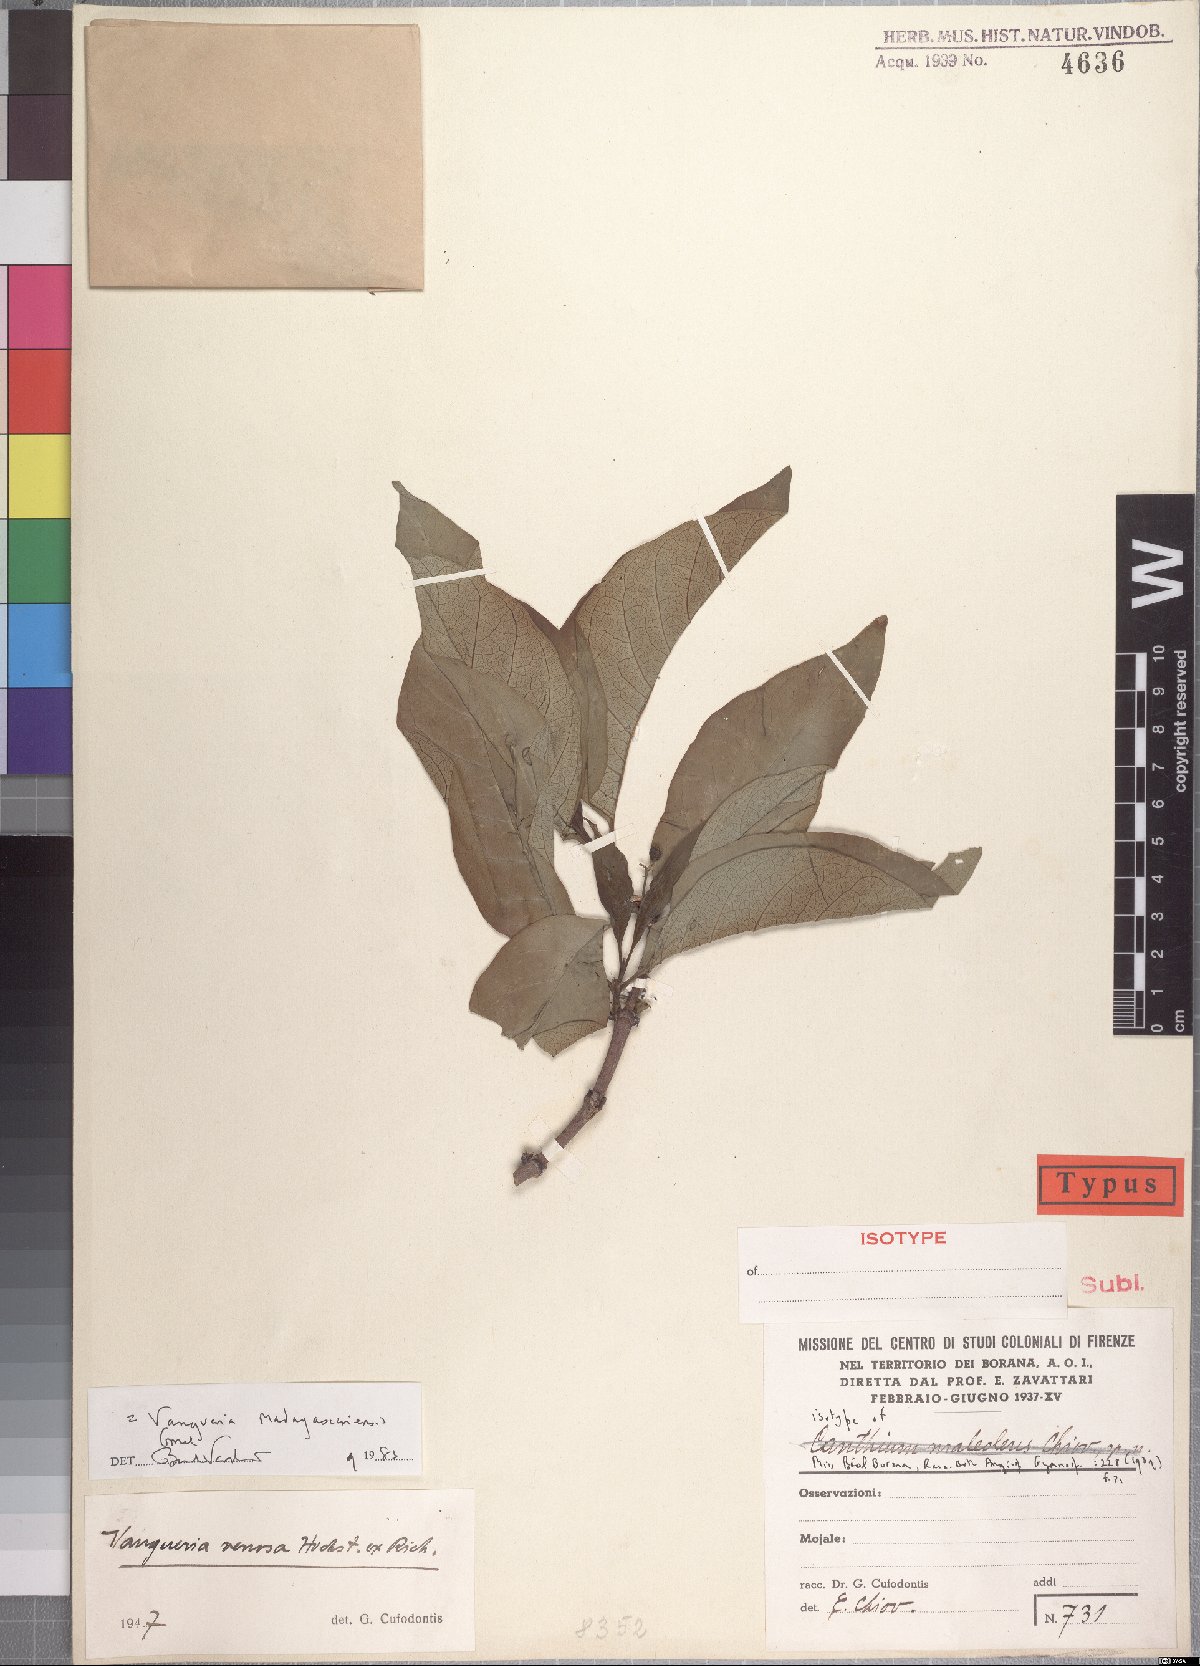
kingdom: Plantae
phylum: Tracheophyta
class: Magnoliopsida
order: Gentianales
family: Rubiaceae
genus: Vangueria
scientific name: Vangueria madagascariensis
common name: Smooth wild-medlar
